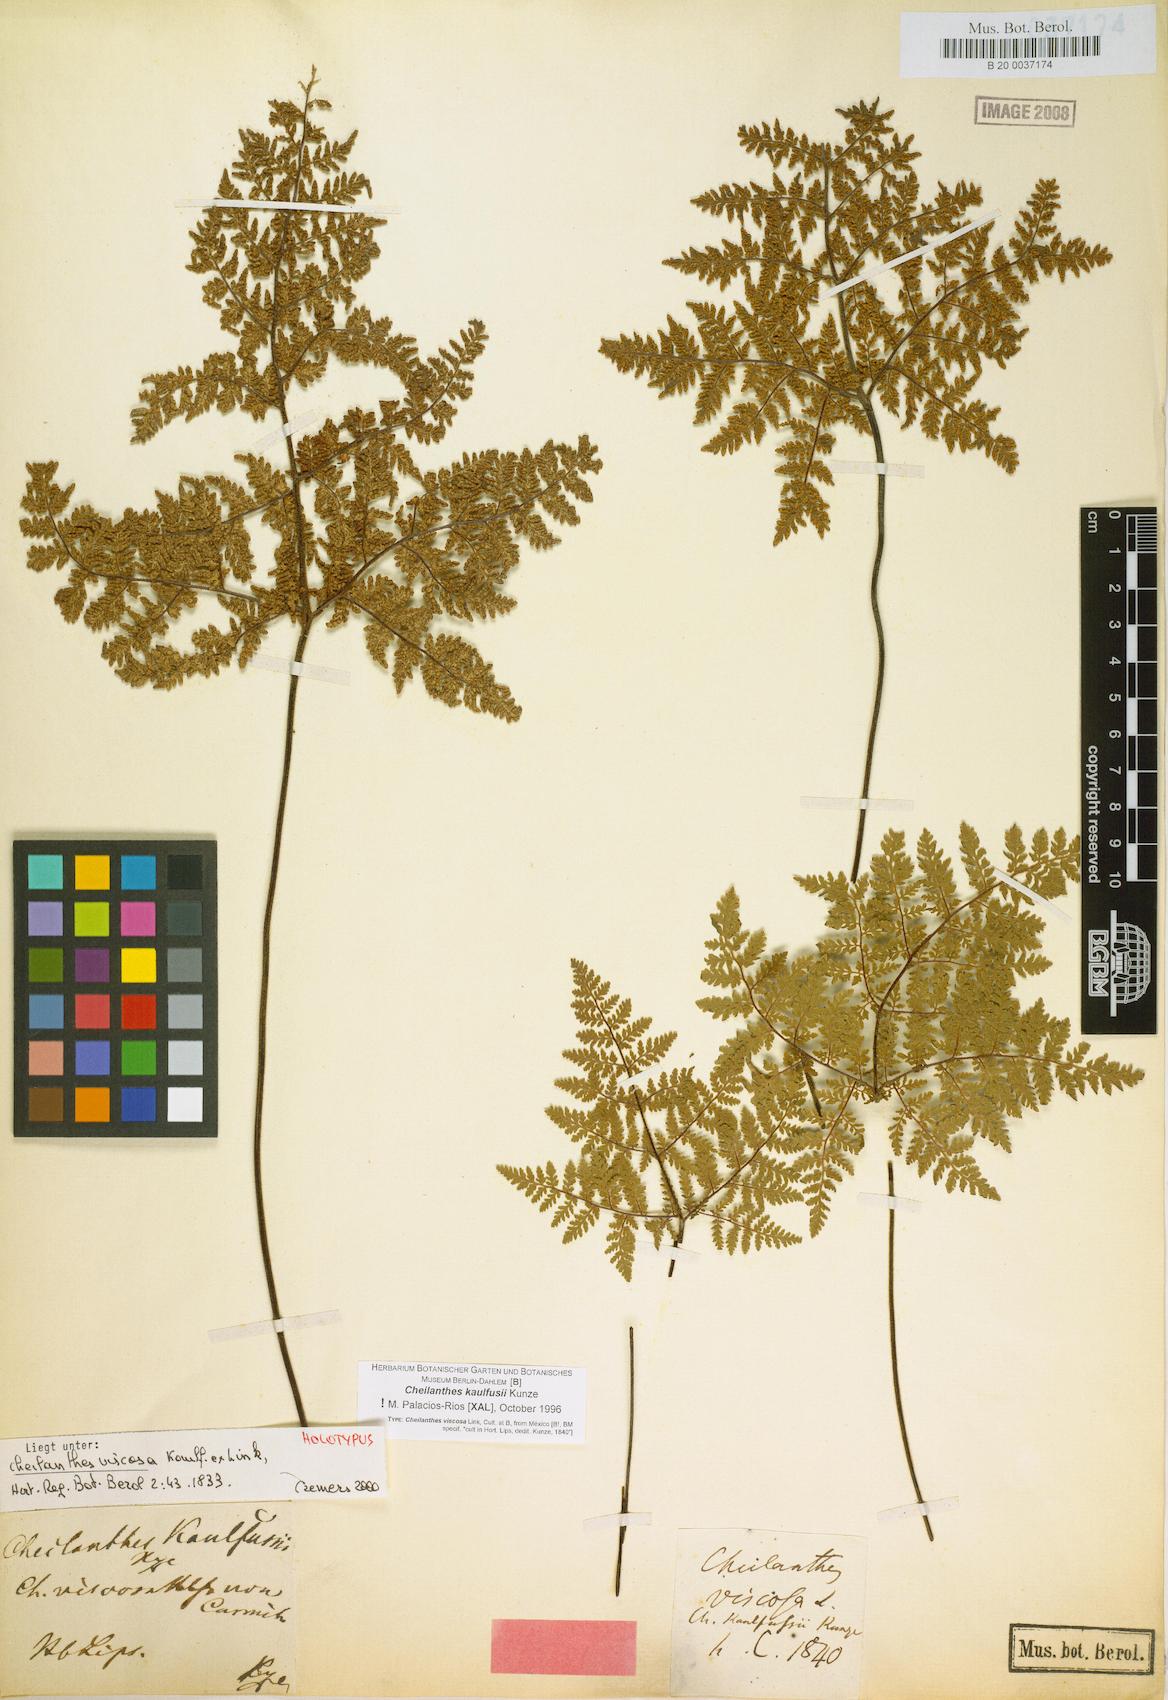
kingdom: Plantae
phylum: Tracheophyta
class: Polypodiopsida
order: Polypodiales
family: Pteridaceae
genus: Gaga
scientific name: Gaga kaulfussii
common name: Glandular lip fern
